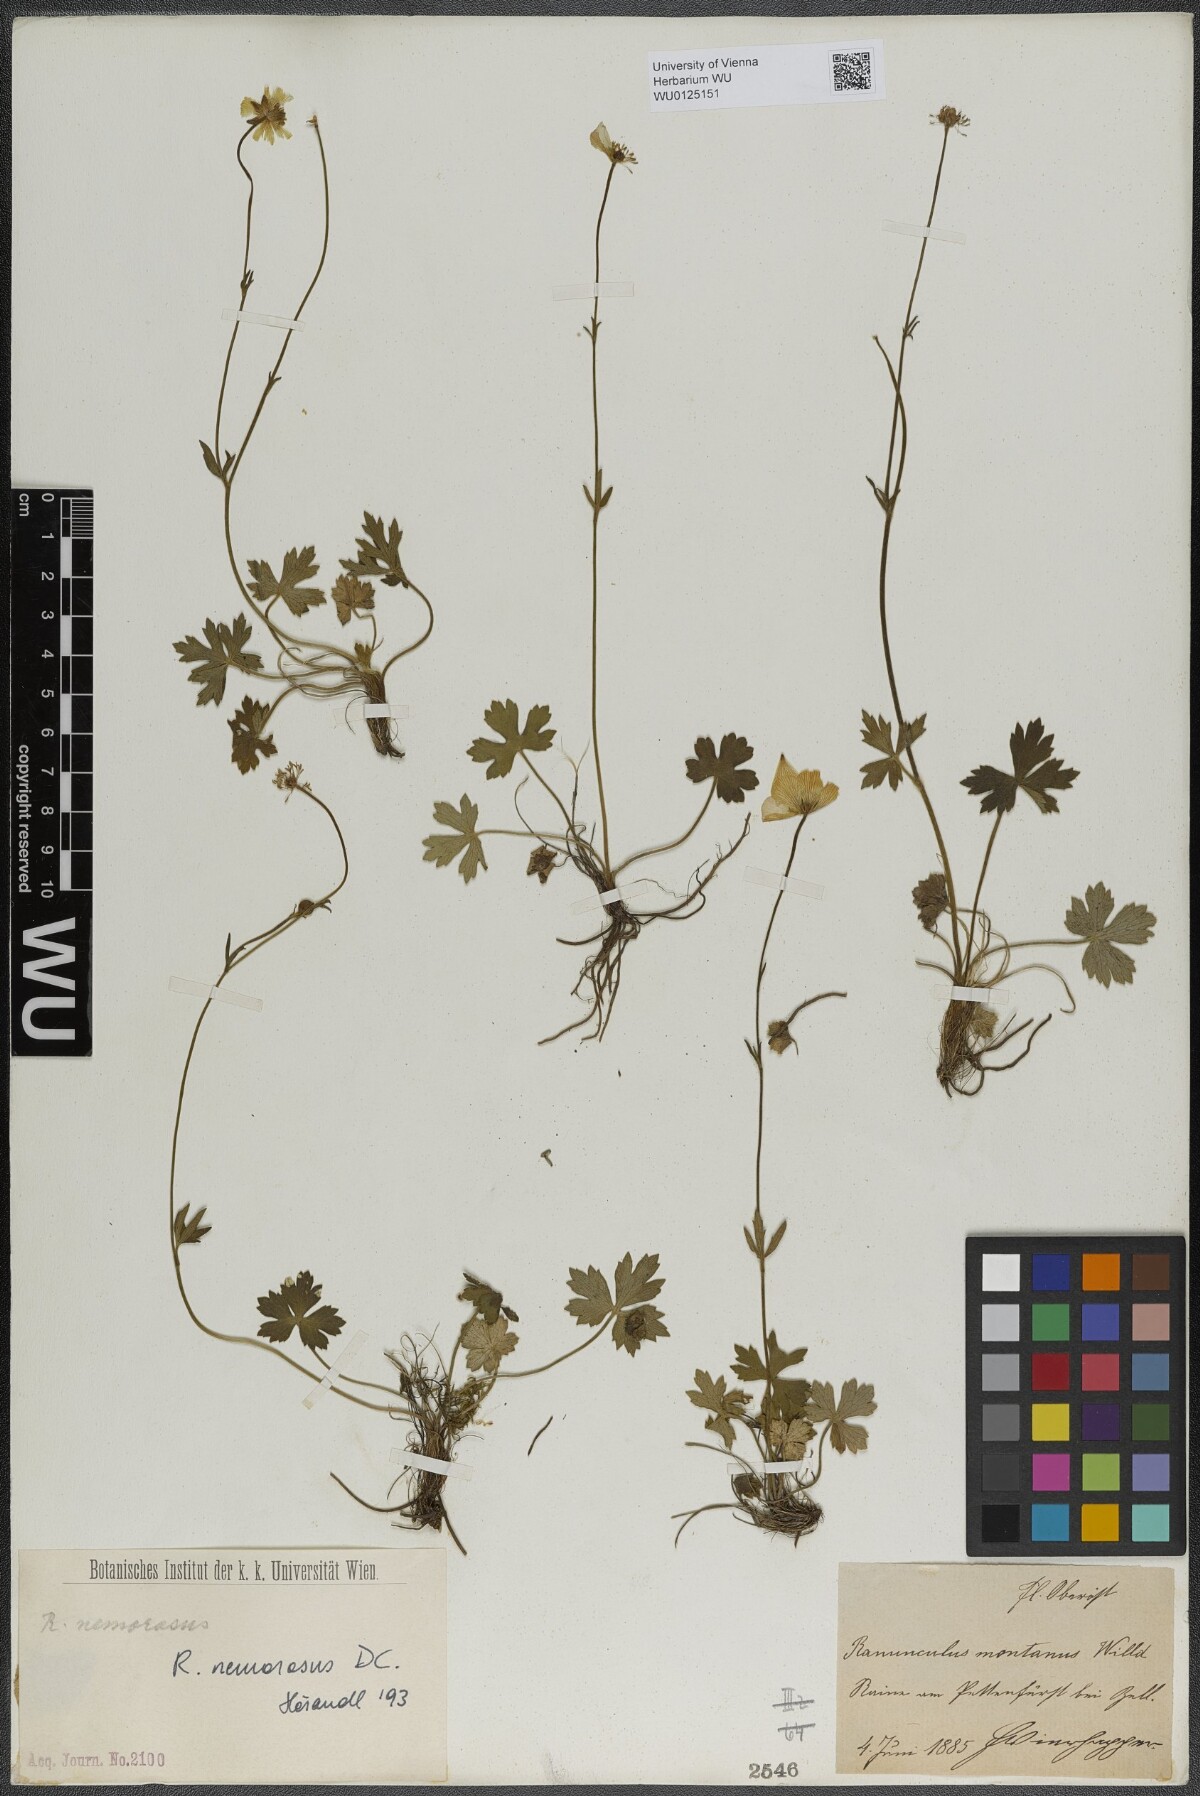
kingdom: Plantae
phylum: Tracheophyta
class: Magnoliopsida
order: Ranunculales
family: Ranunculaceae
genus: Ranunculus
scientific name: Ranunculus polyanthemos
